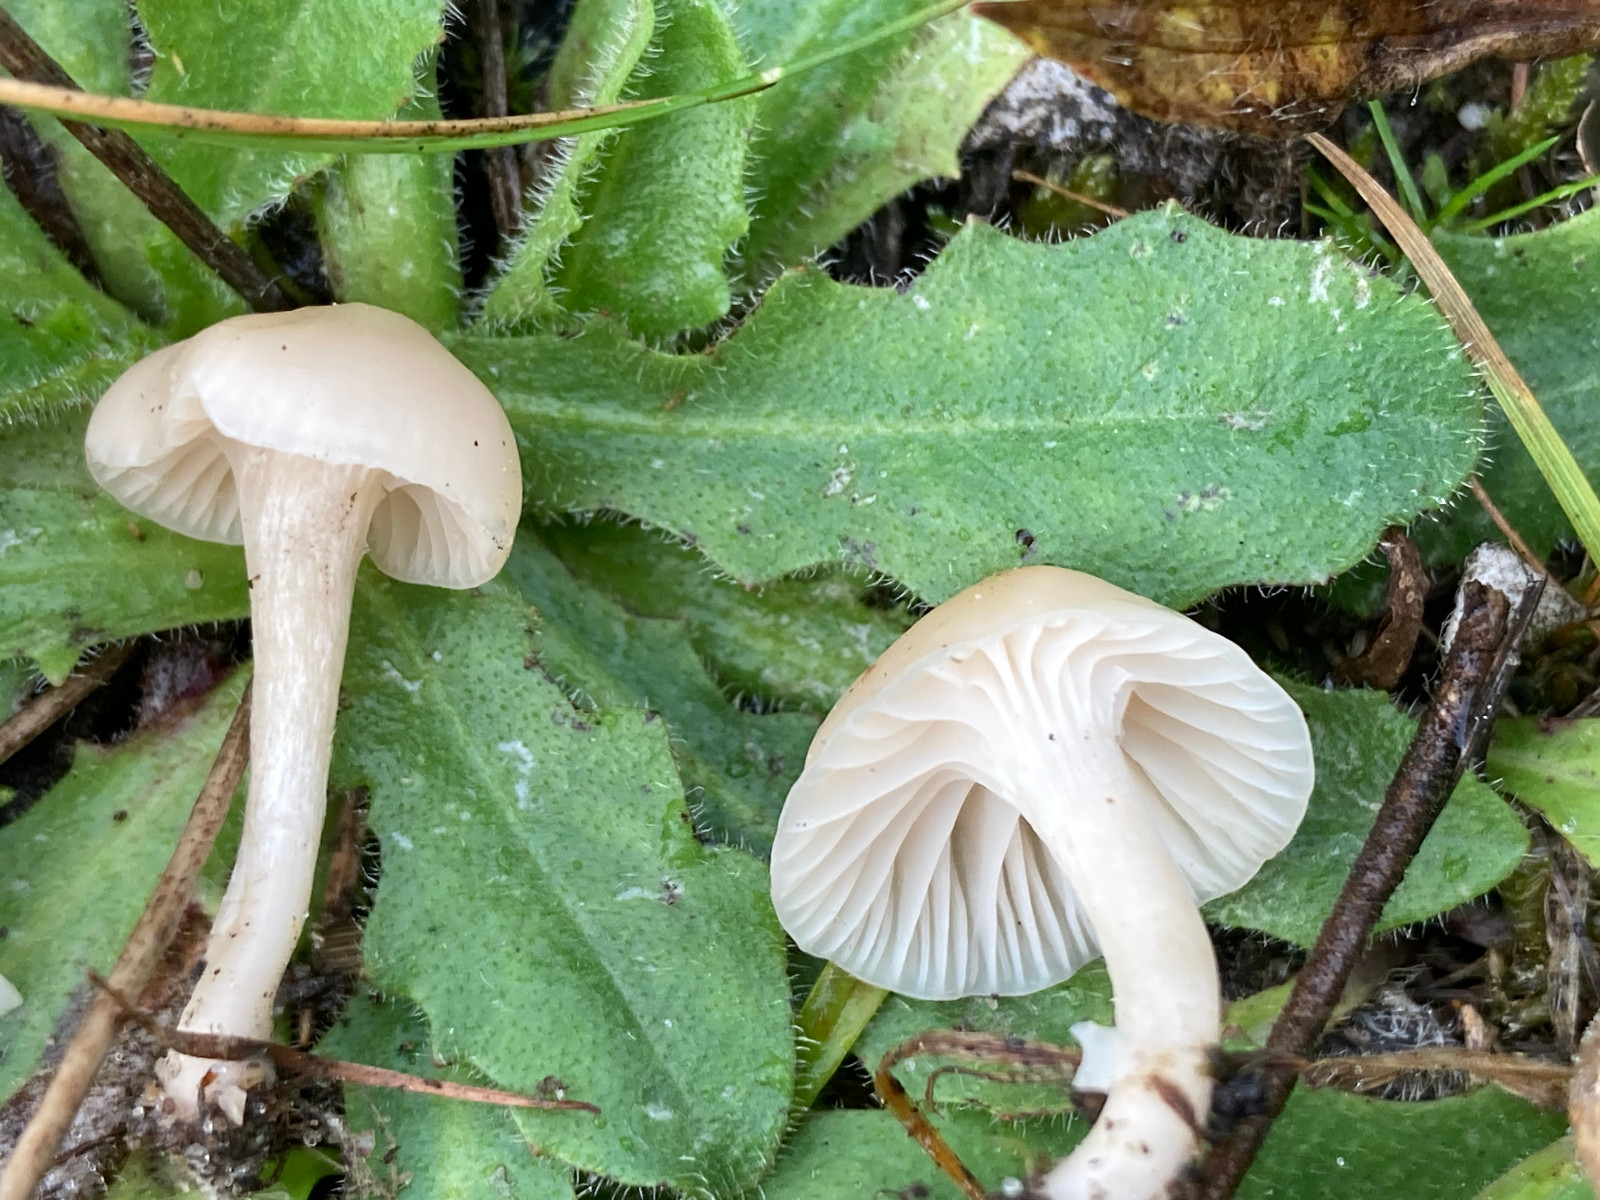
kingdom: Fungi
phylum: Basidiomycota
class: Agaricomycetes
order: Agaricales
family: Hygrophoraceae
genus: Cuphophyllus
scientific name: Cuphophyllus virgineus
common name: snehvid vokshat
